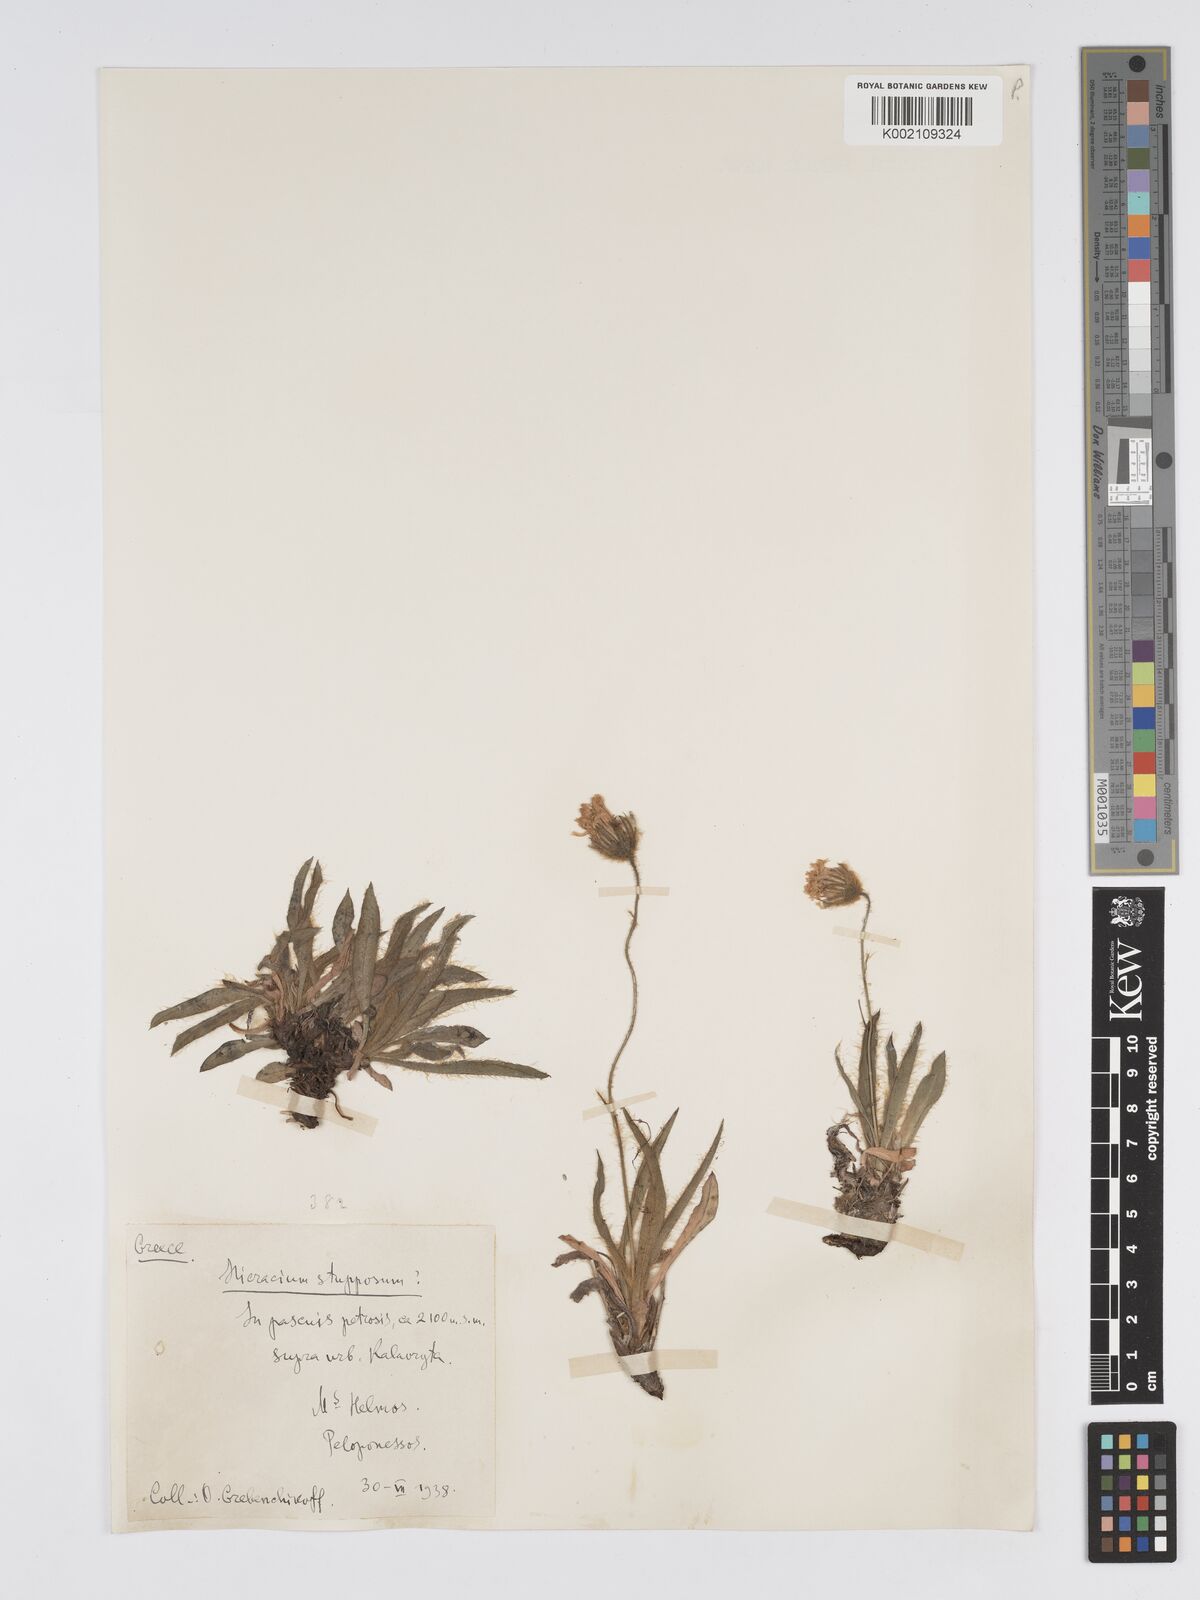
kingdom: Plantae
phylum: Tracheophyta
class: Magnoliopsida
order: Asterales
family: Asteraceae
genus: Hieracium
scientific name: Hieracium heterogynum
